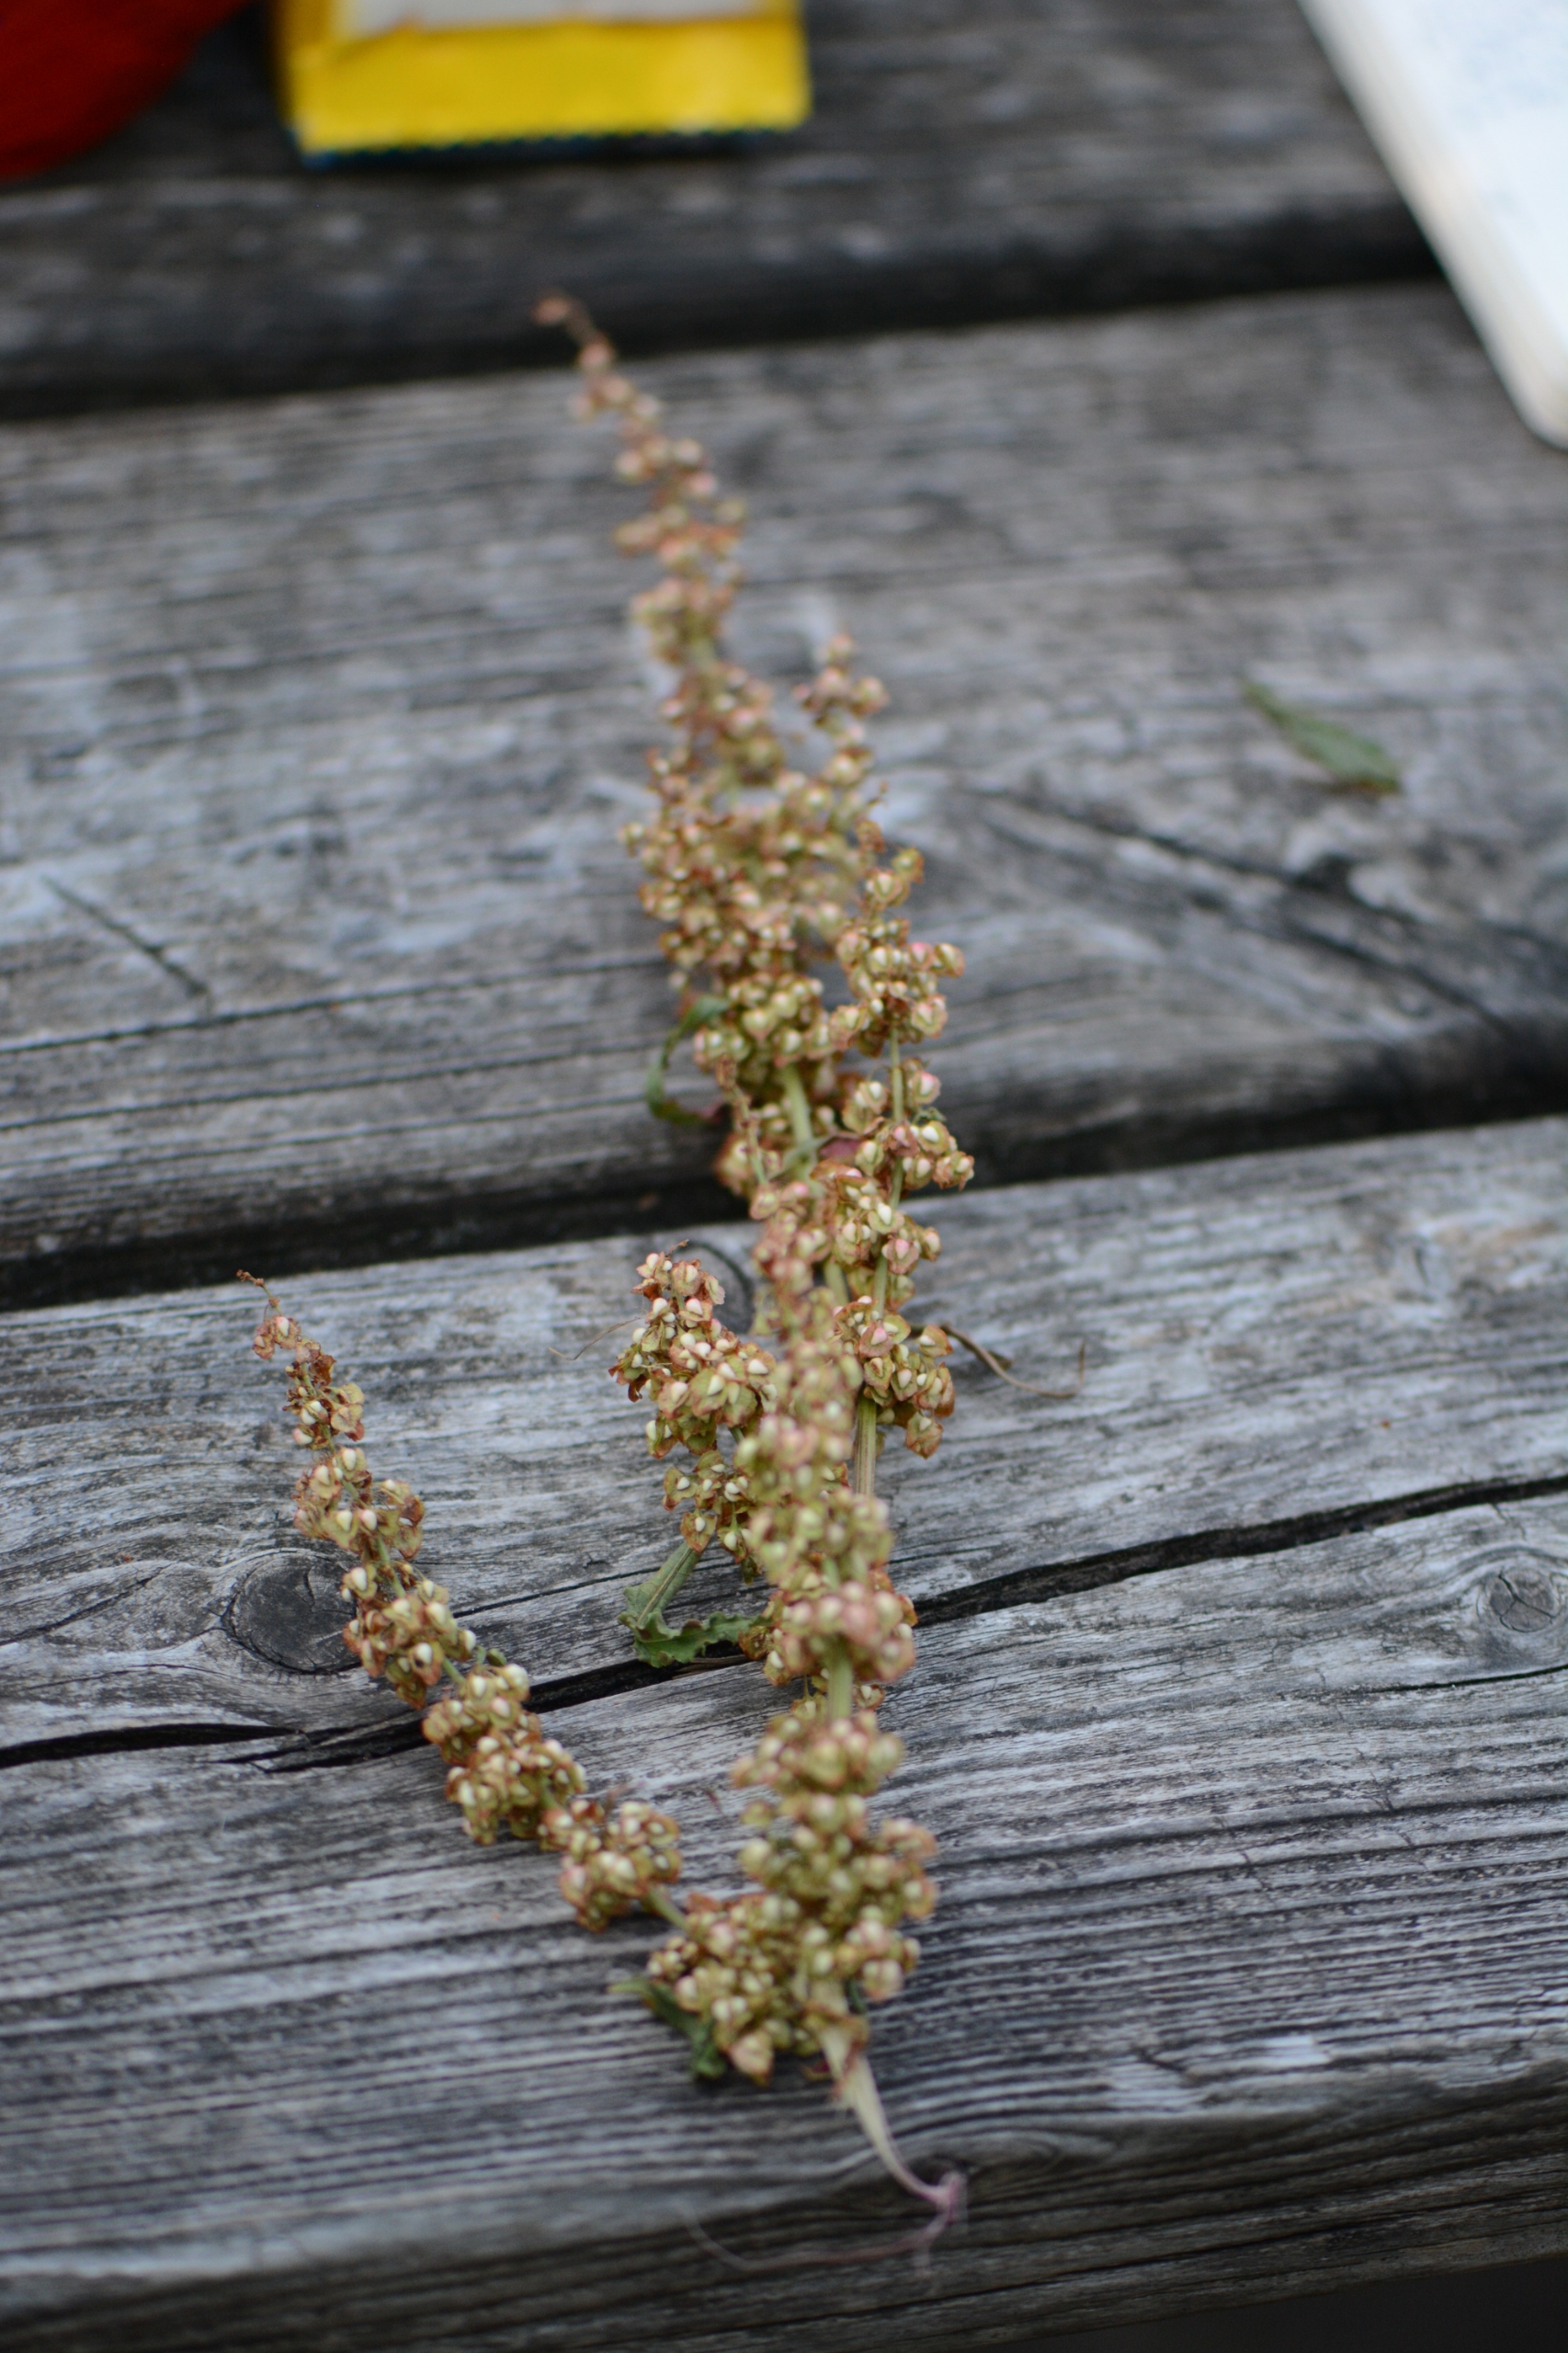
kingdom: Plantae
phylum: Tracheophyta
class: Magnoliopsida
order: Caryophyllales
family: Polygonaceae
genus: Rumex
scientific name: Rumex crispus
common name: Kruset skræppe
